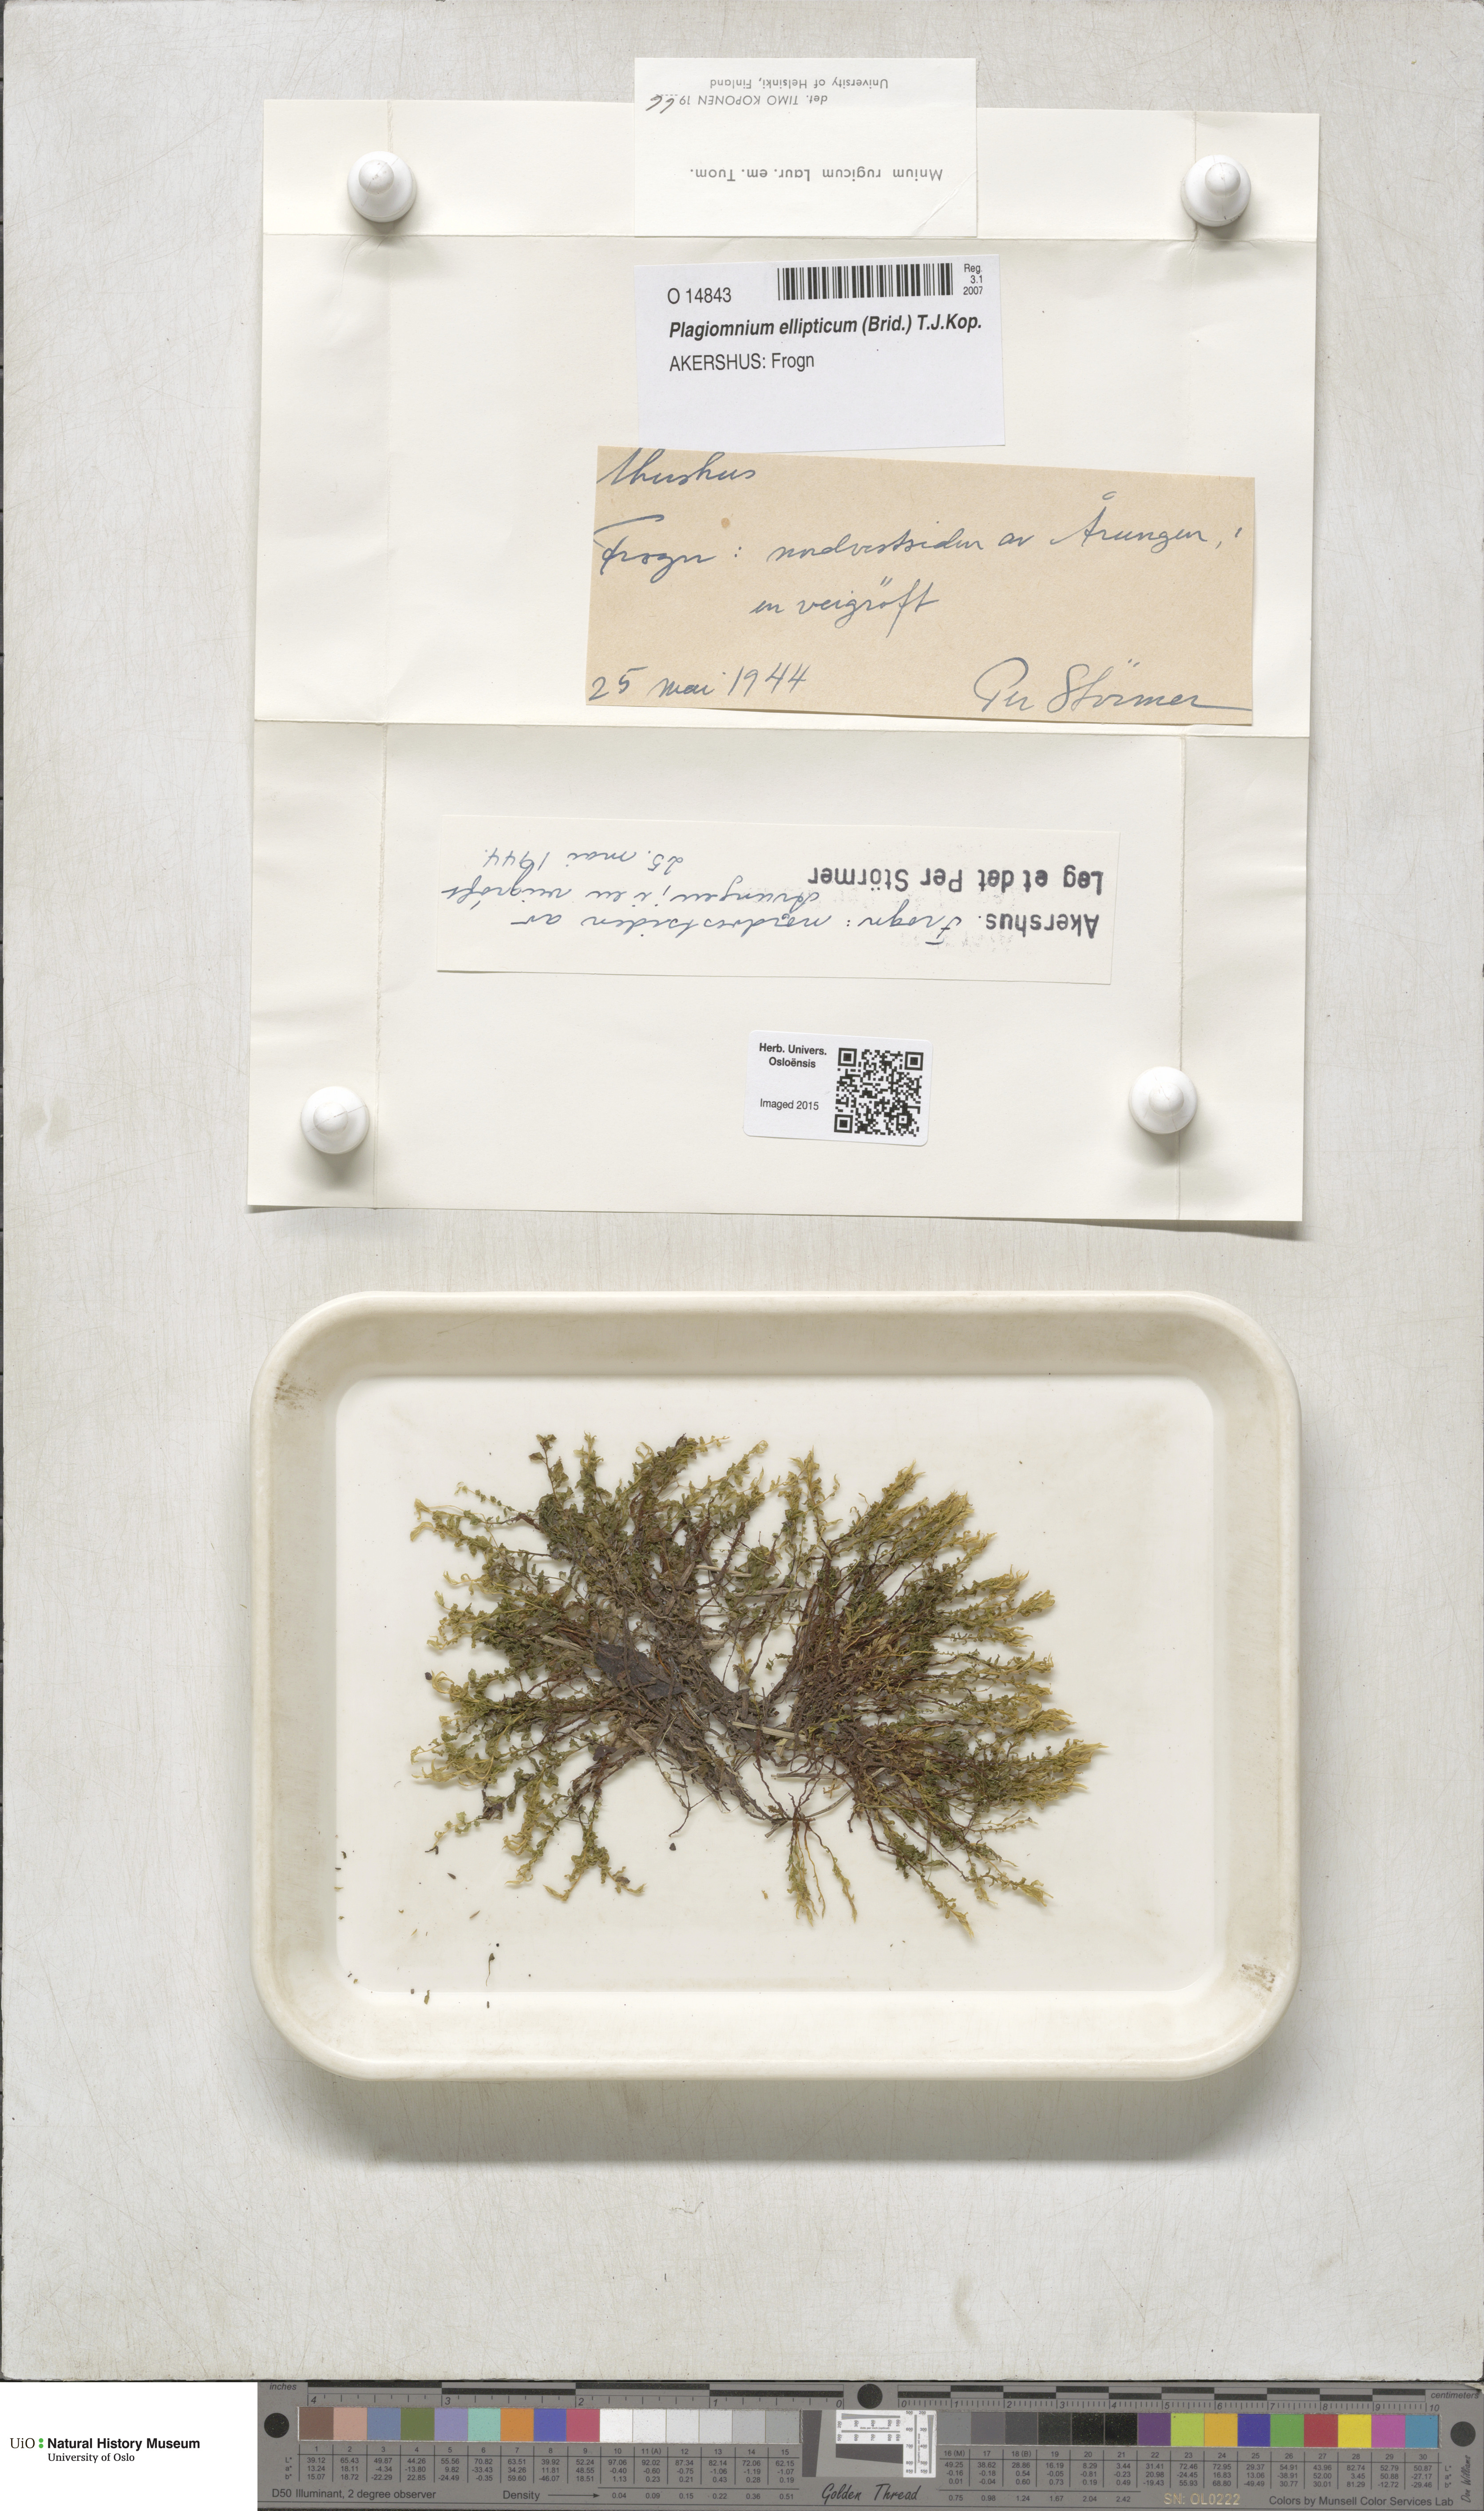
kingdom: Plantae
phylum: Bryophyta
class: Bryopsida
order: Bryales
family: Mniaceae
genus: Plagiomnium
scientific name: Plagiomnium ellipticum
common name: Marsh leafy moss
